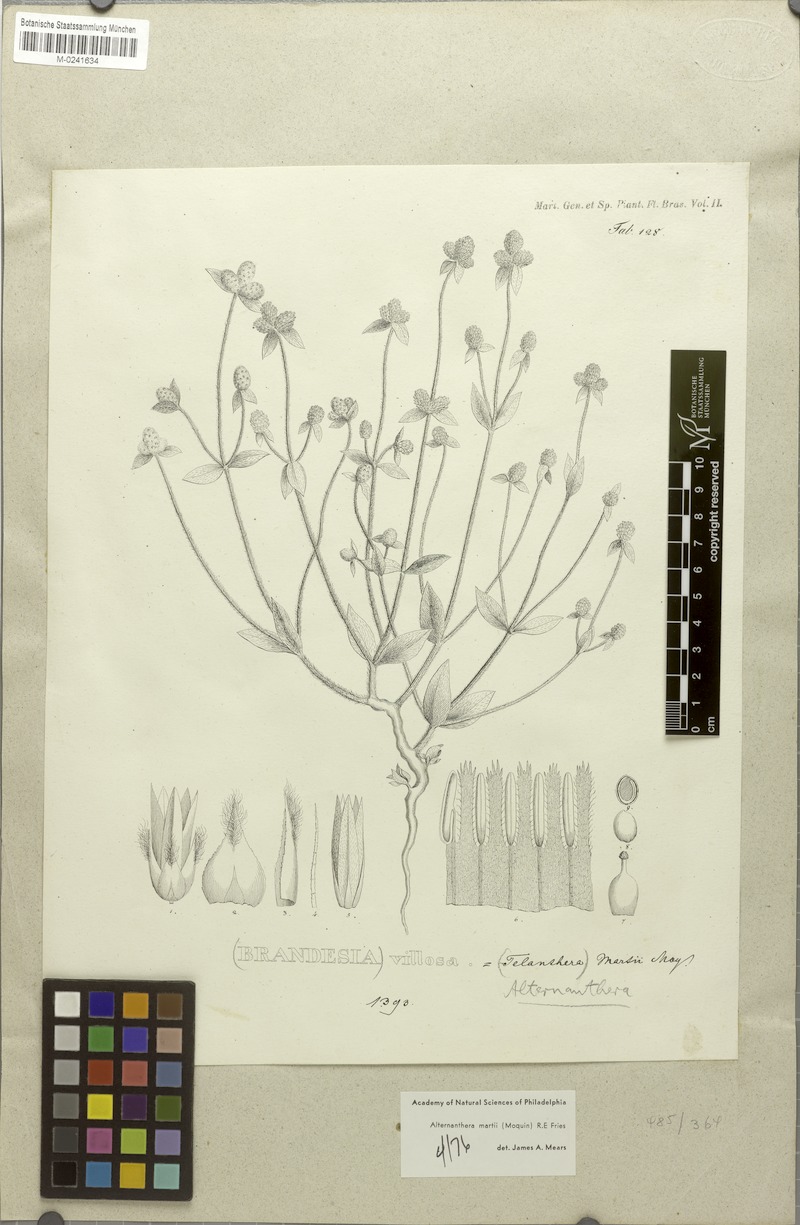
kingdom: Plantae
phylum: Tracheophyta
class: Magnoliopsida
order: Caryophyllales
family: Amaranthaceae
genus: Alternanthera
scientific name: Alternanthera martii
